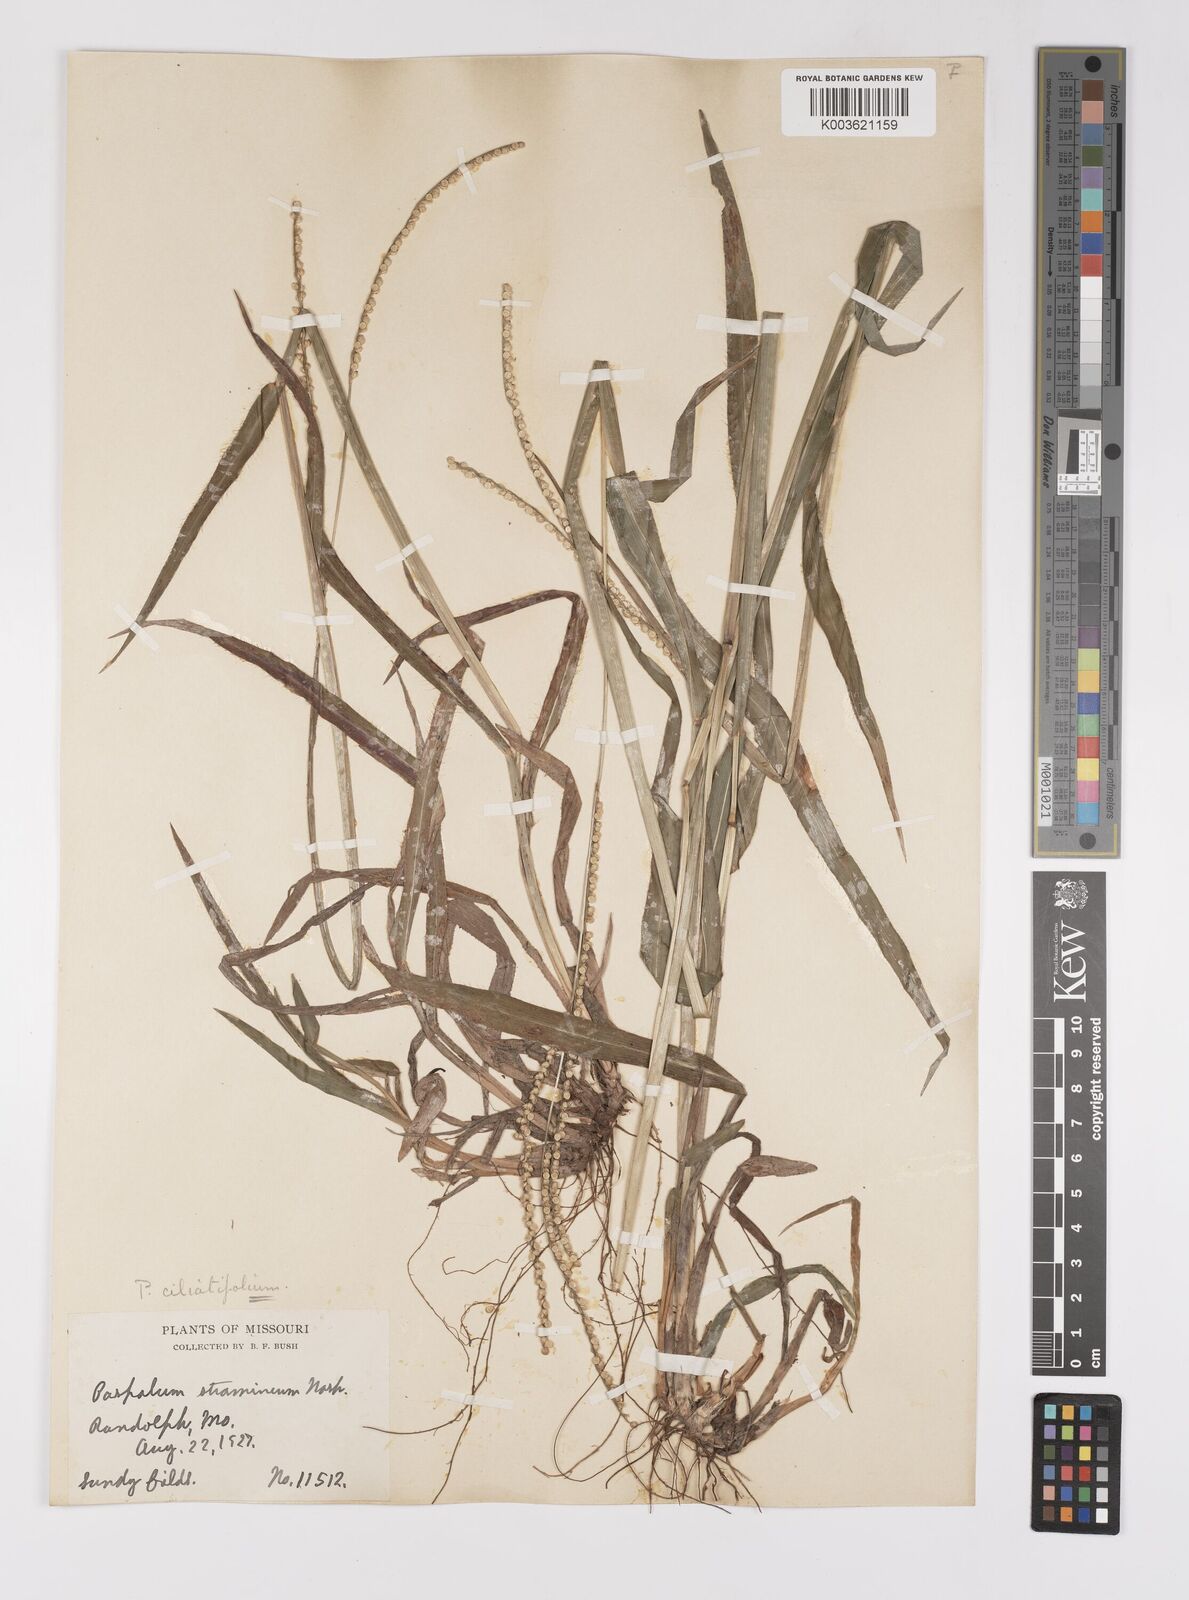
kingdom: Plantae
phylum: Tracheophyta
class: Liliopsida
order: Poales
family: Poaceae
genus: Paspalum
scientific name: Paspalum setaceum
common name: Slender paspalum
